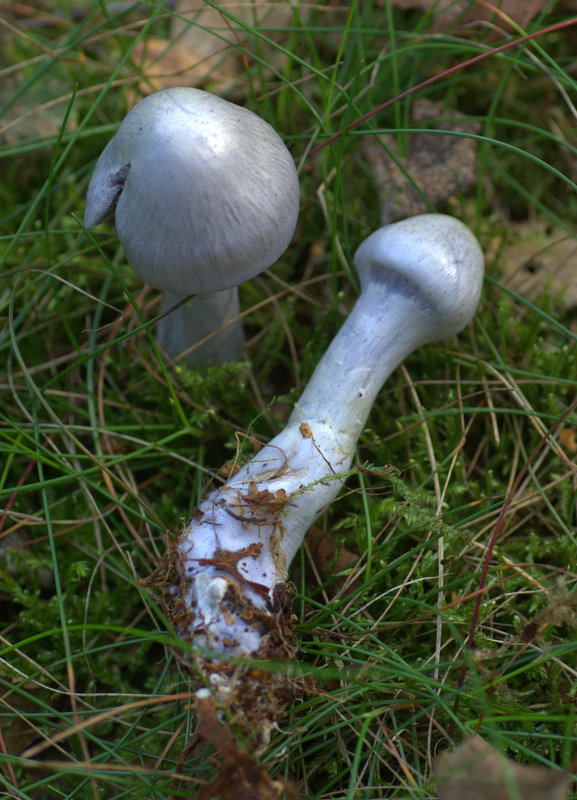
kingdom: Fungi
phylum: Basidiomycota
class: Agaricomycetes
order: Agaricales
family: Cortinariaceae
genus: Cortinarius
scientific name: Cortinarius alboviolaceus
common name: lysviolet slørhat
